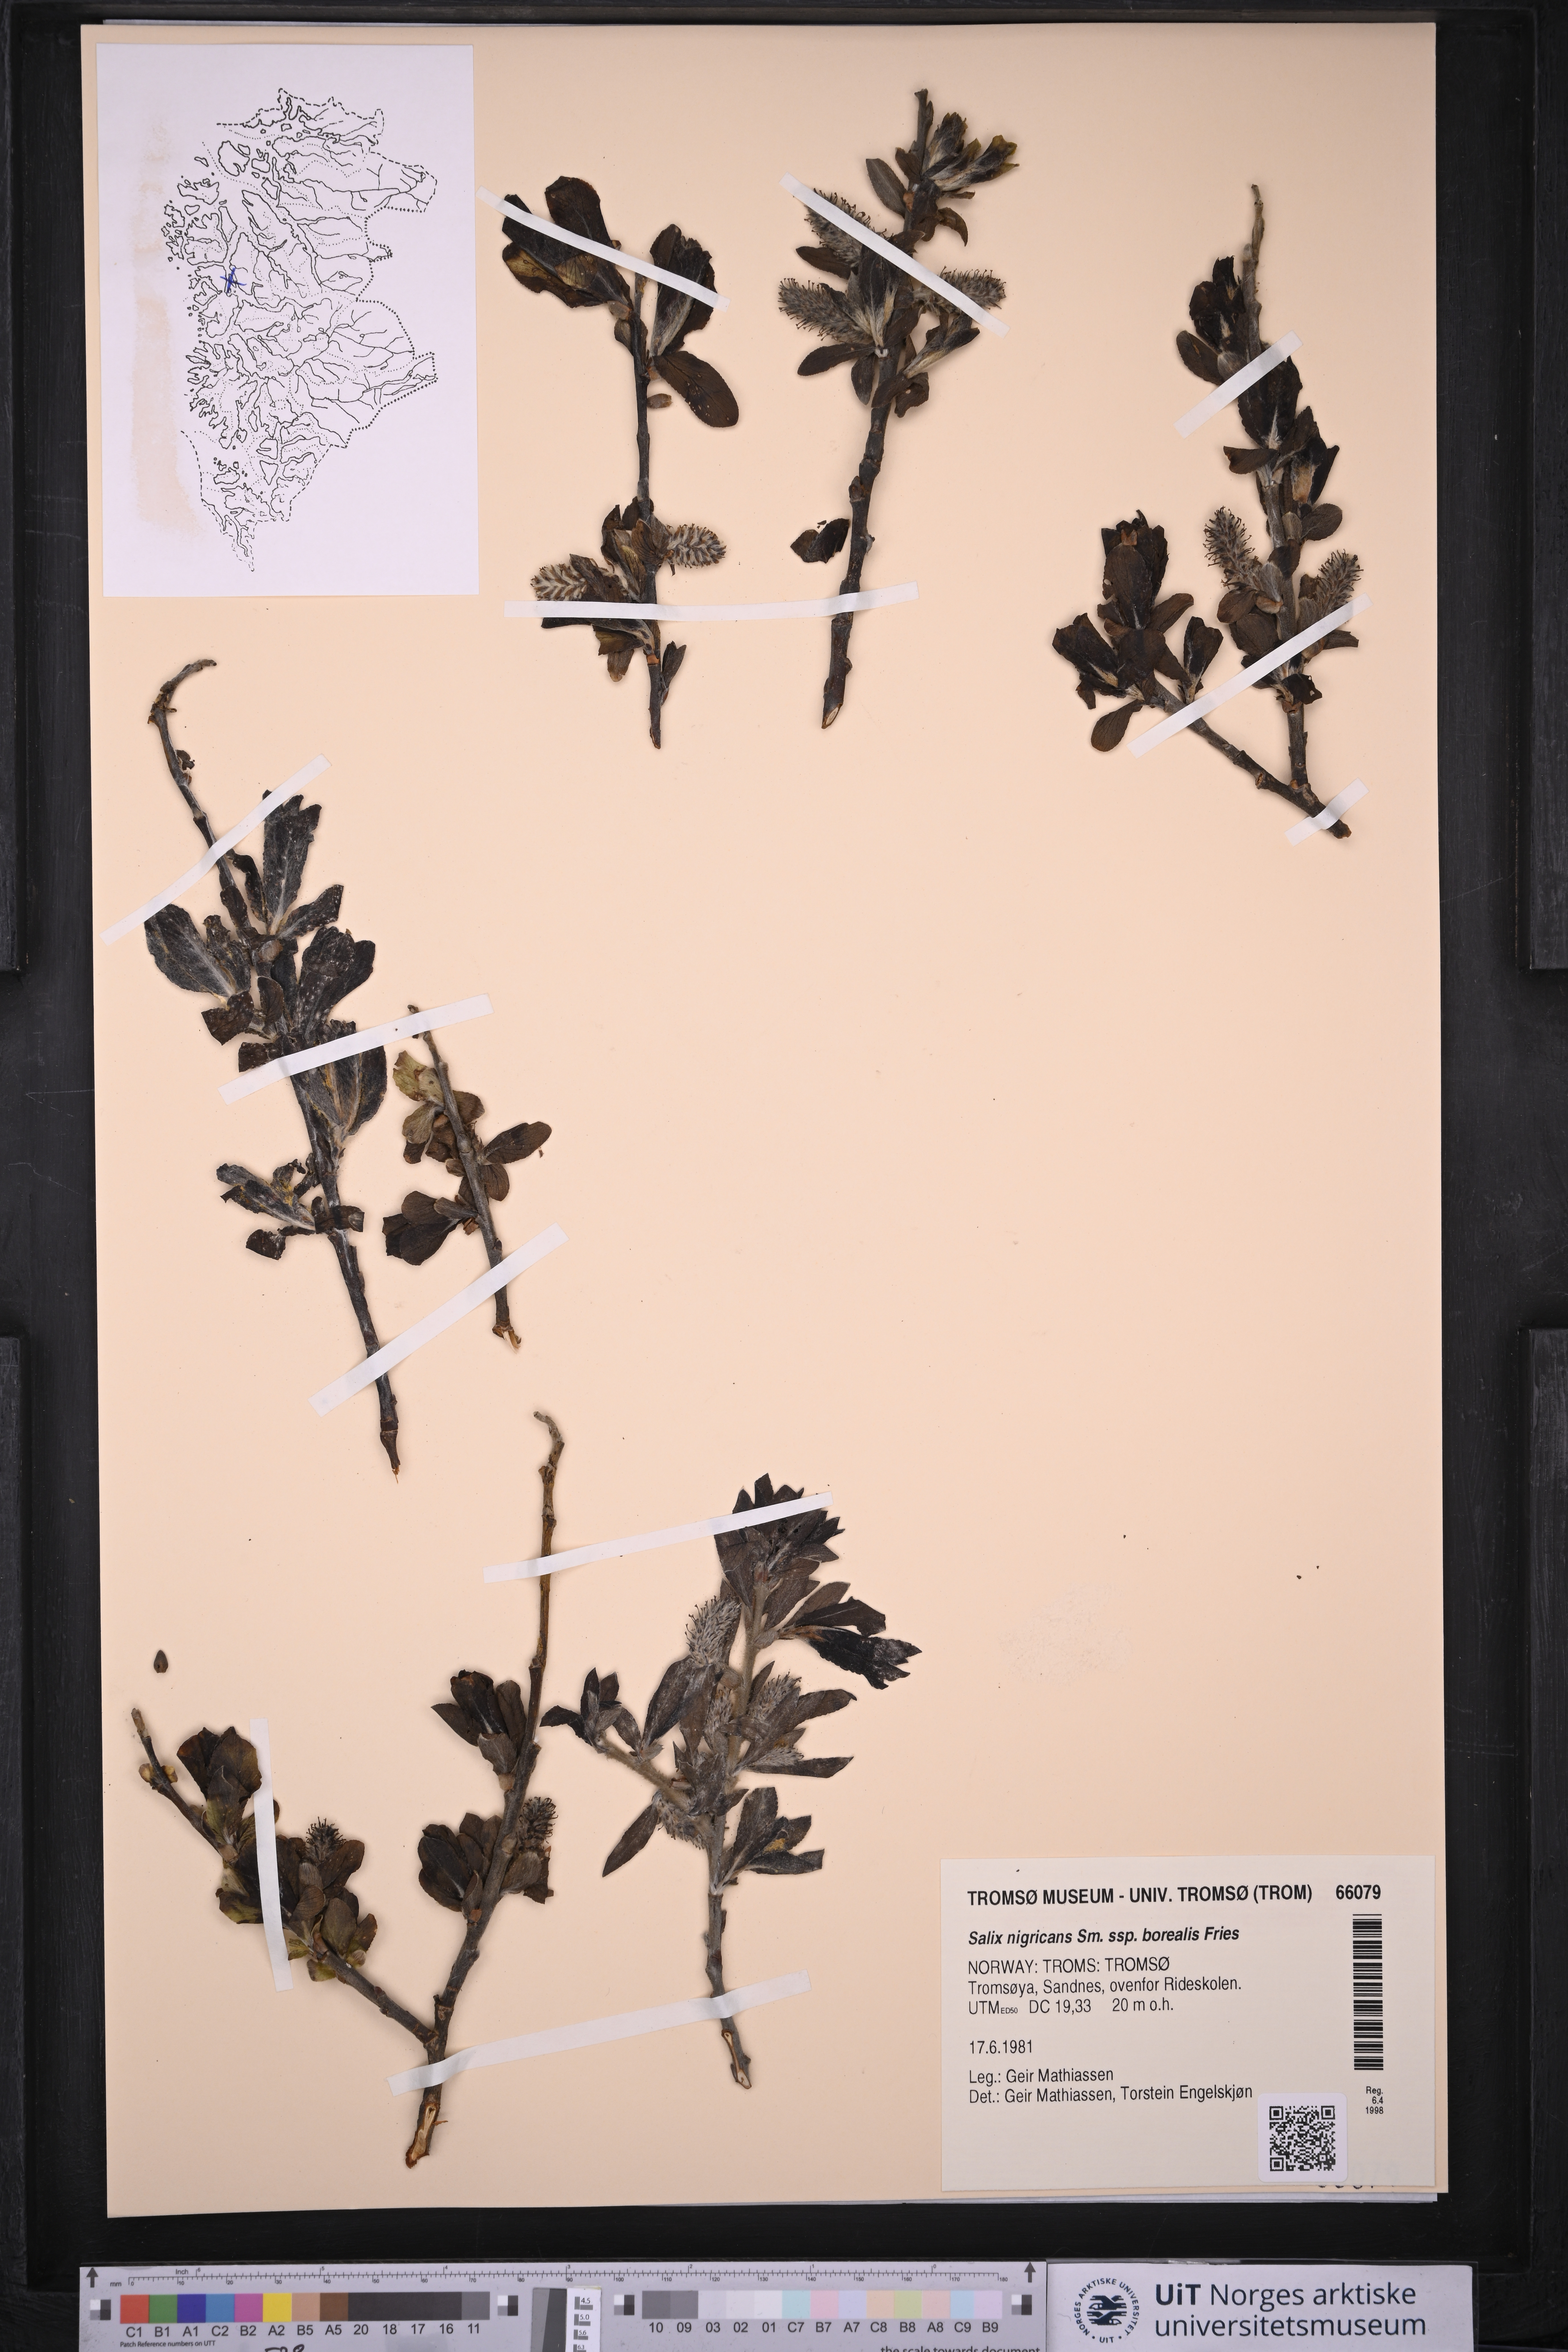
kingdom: Plantae
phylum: Tracheophyta
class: Magnoliopsida
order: Malpighiales
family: Salicaceae
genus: Salix
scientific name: Salix myrsinifolia
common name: Dark-leaved willow
